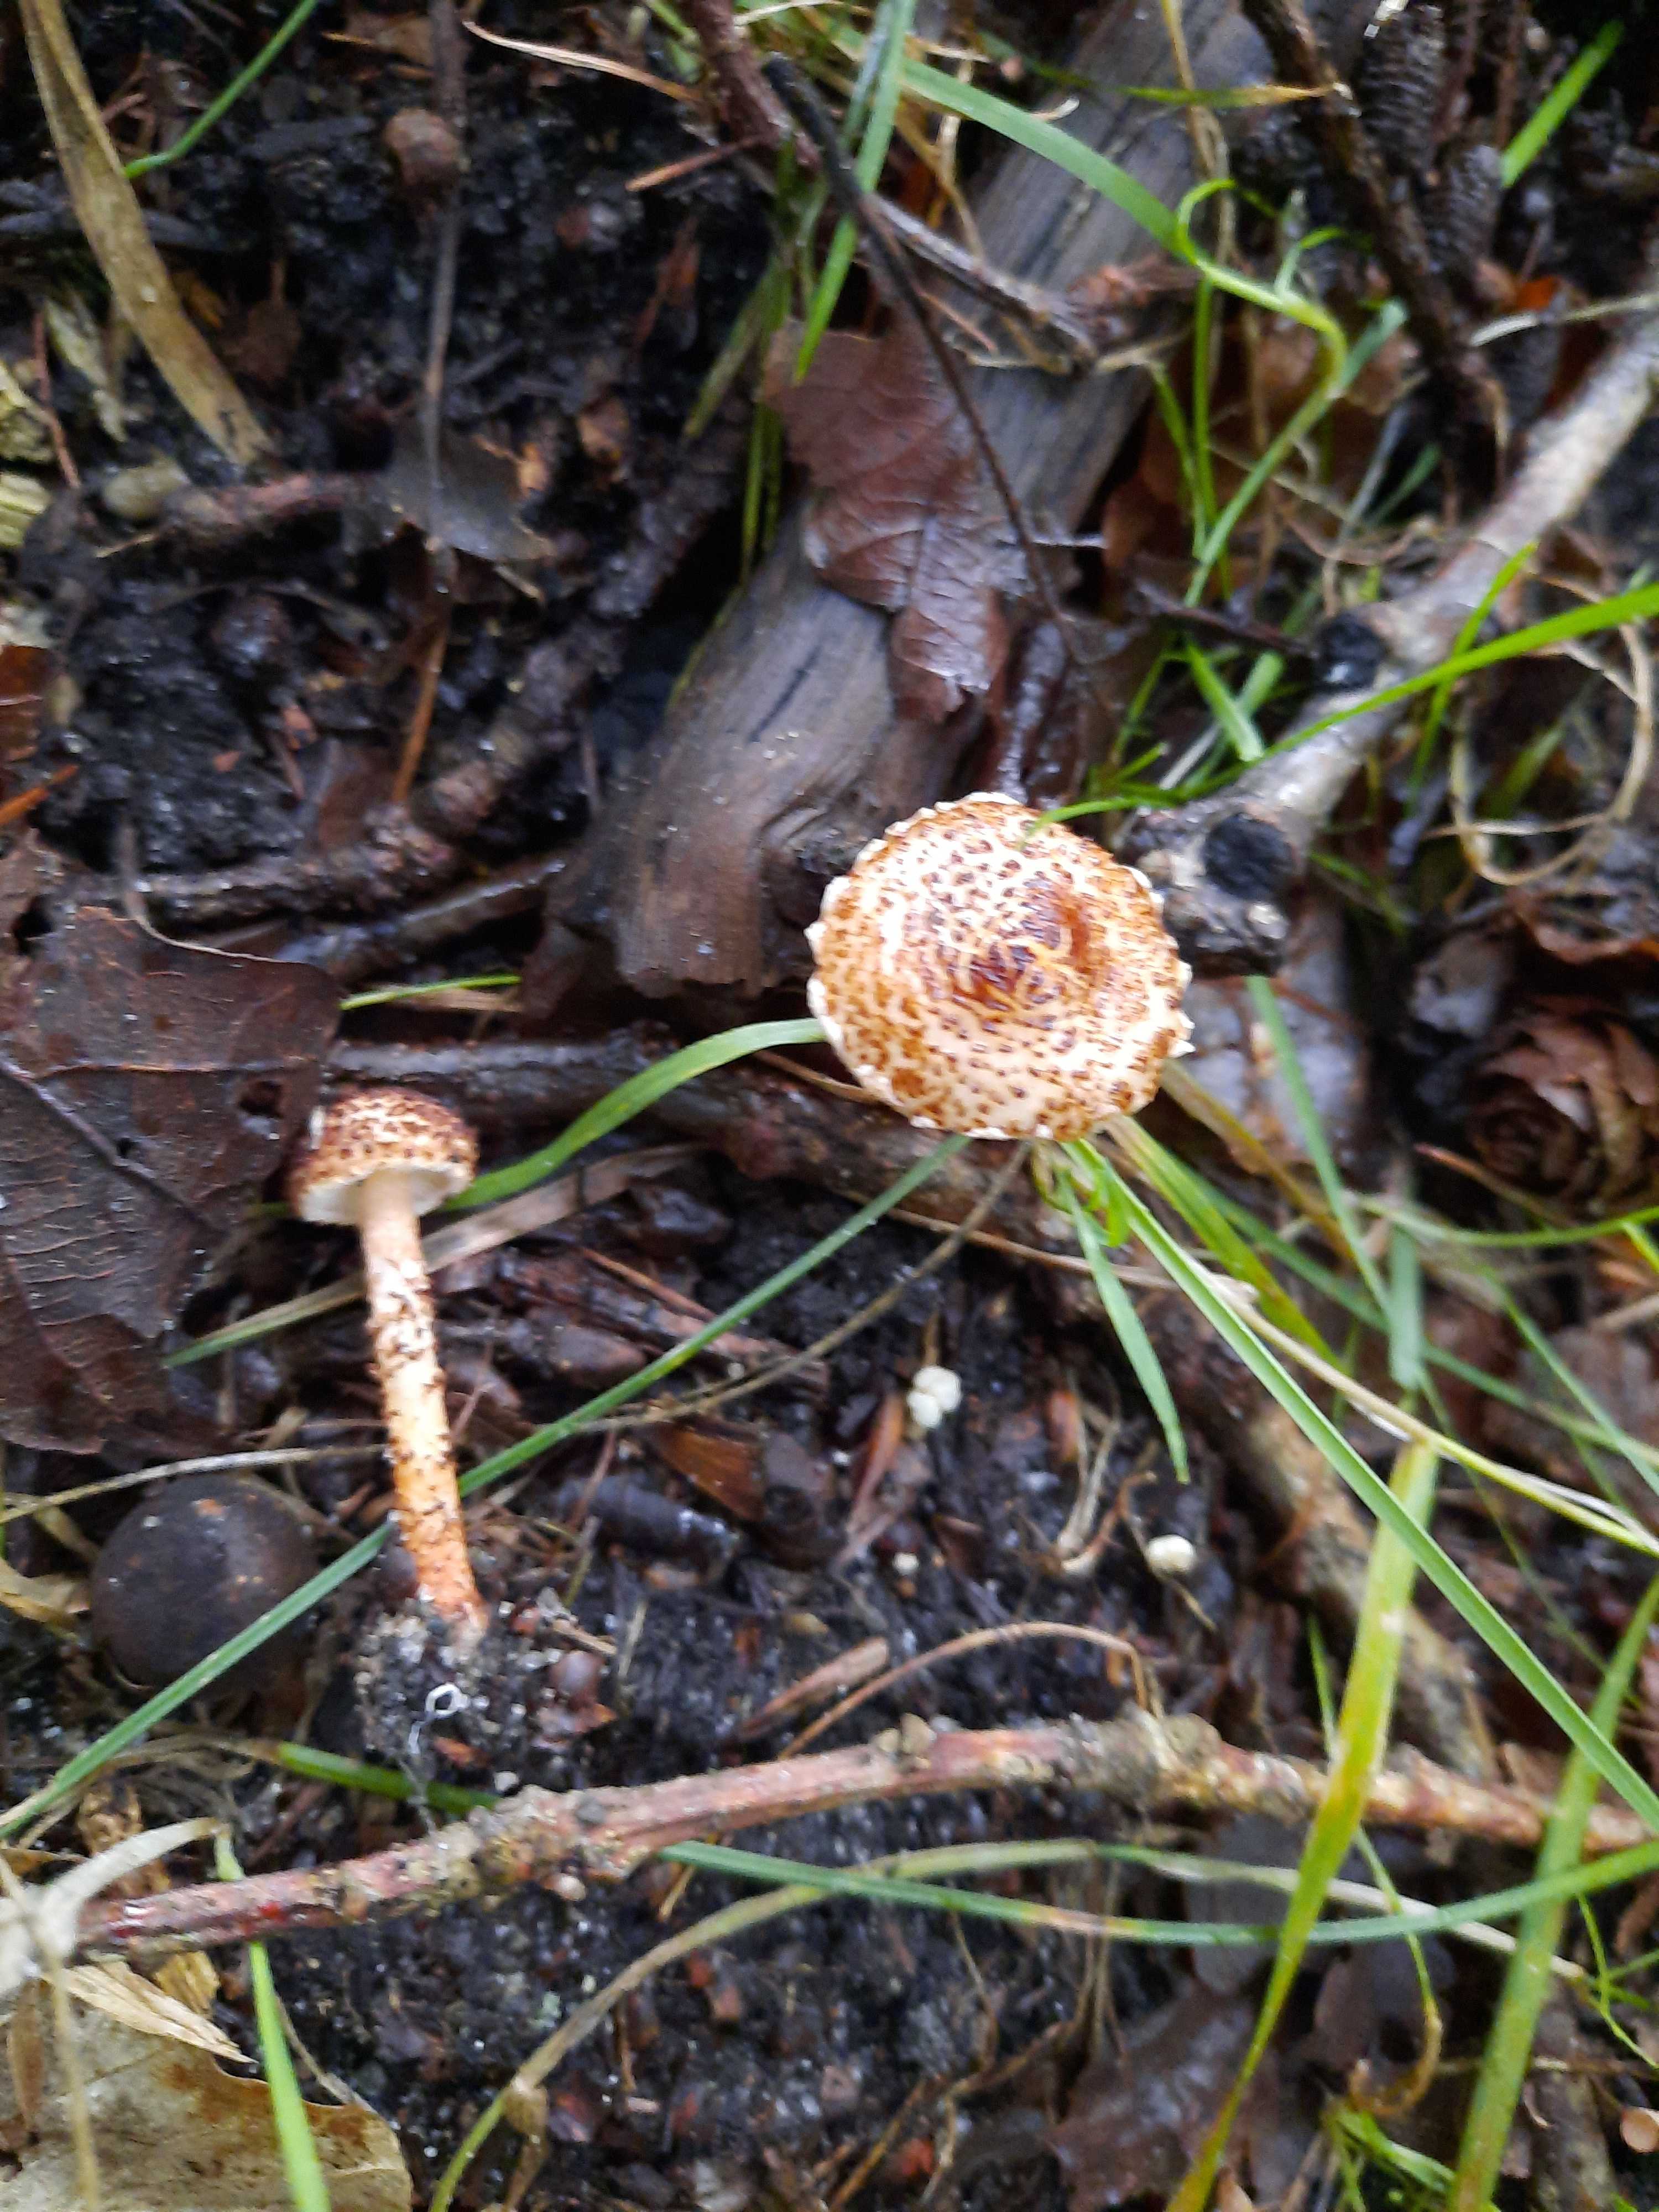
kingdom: Fungi
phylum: Basidiomycota
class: Agaricomycetes
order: Agaricales
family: Agaricaceae
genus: Lepiota
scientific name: Lepiota castanea
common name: kastaniebrun parasolhat
